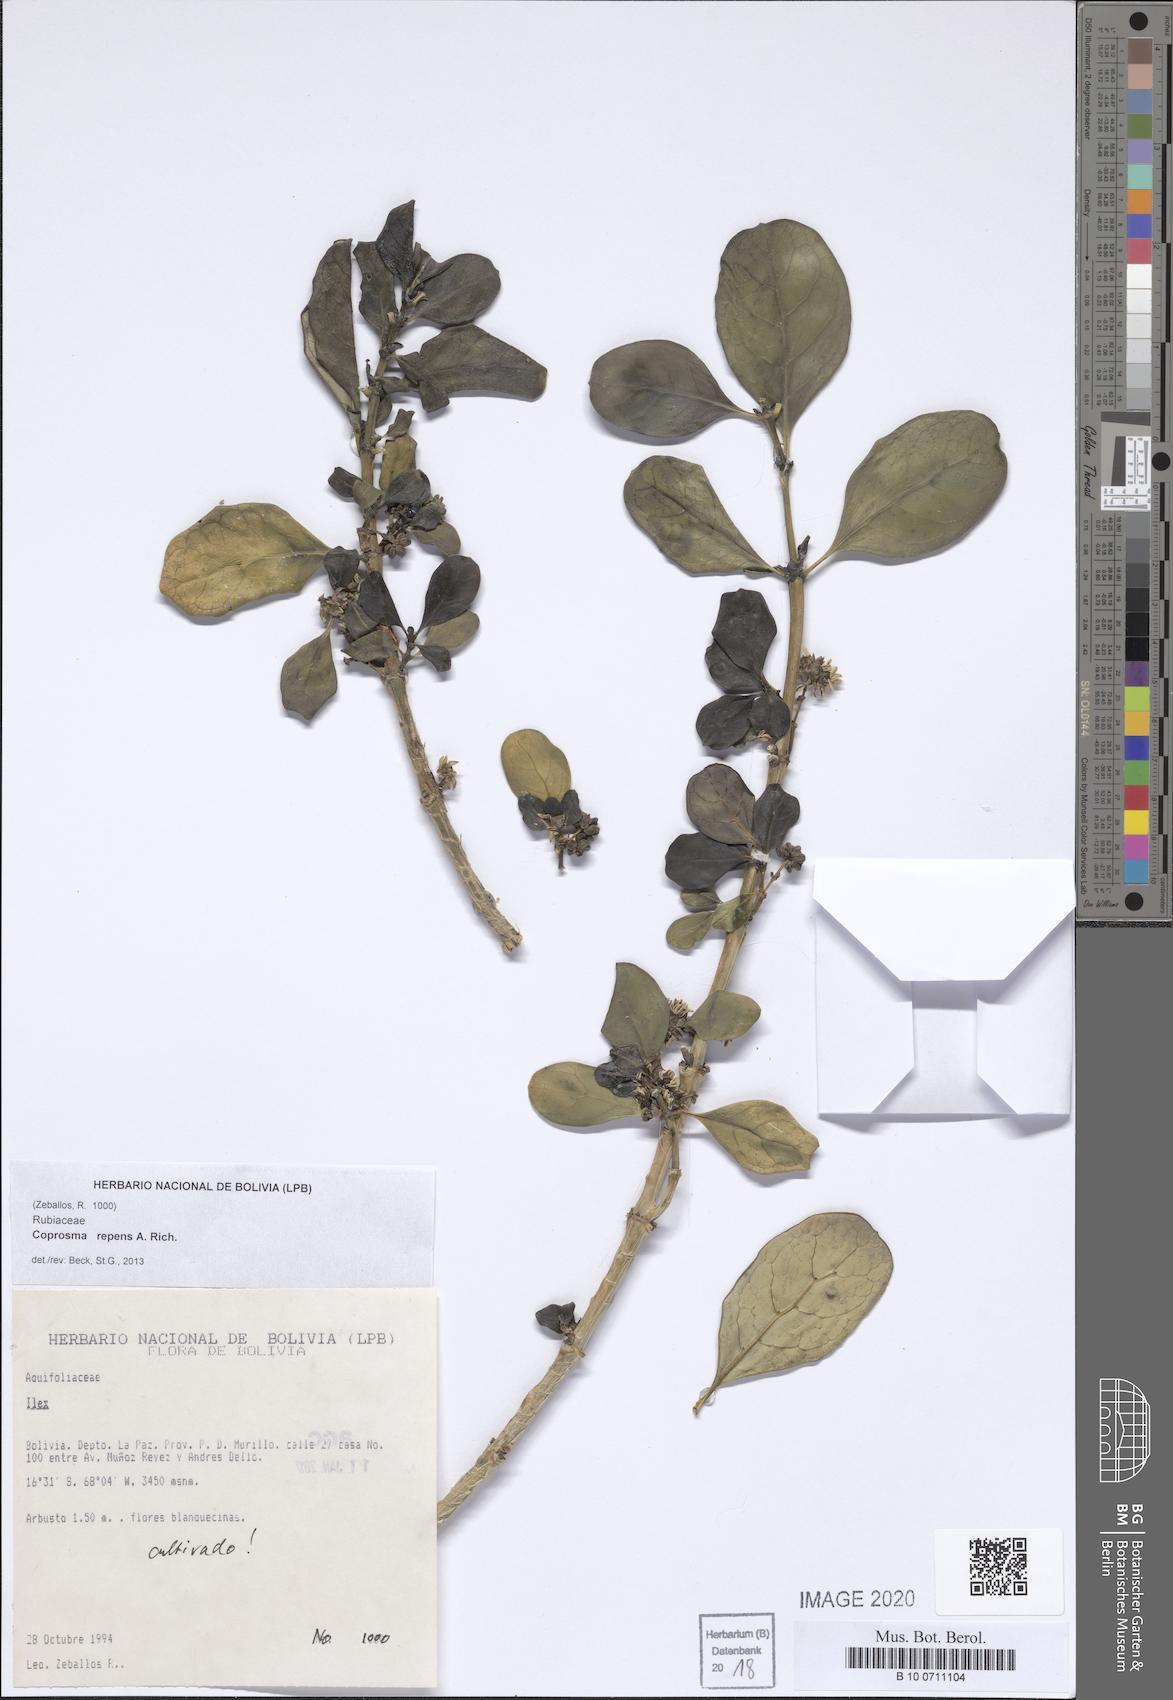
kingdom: Plantae
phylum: Tracheophyta
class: Magnoliopsida
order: Gentianales
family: Rubiaceae
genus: Coprosma
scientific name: Coprosma repens
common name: Tree bedstraw
